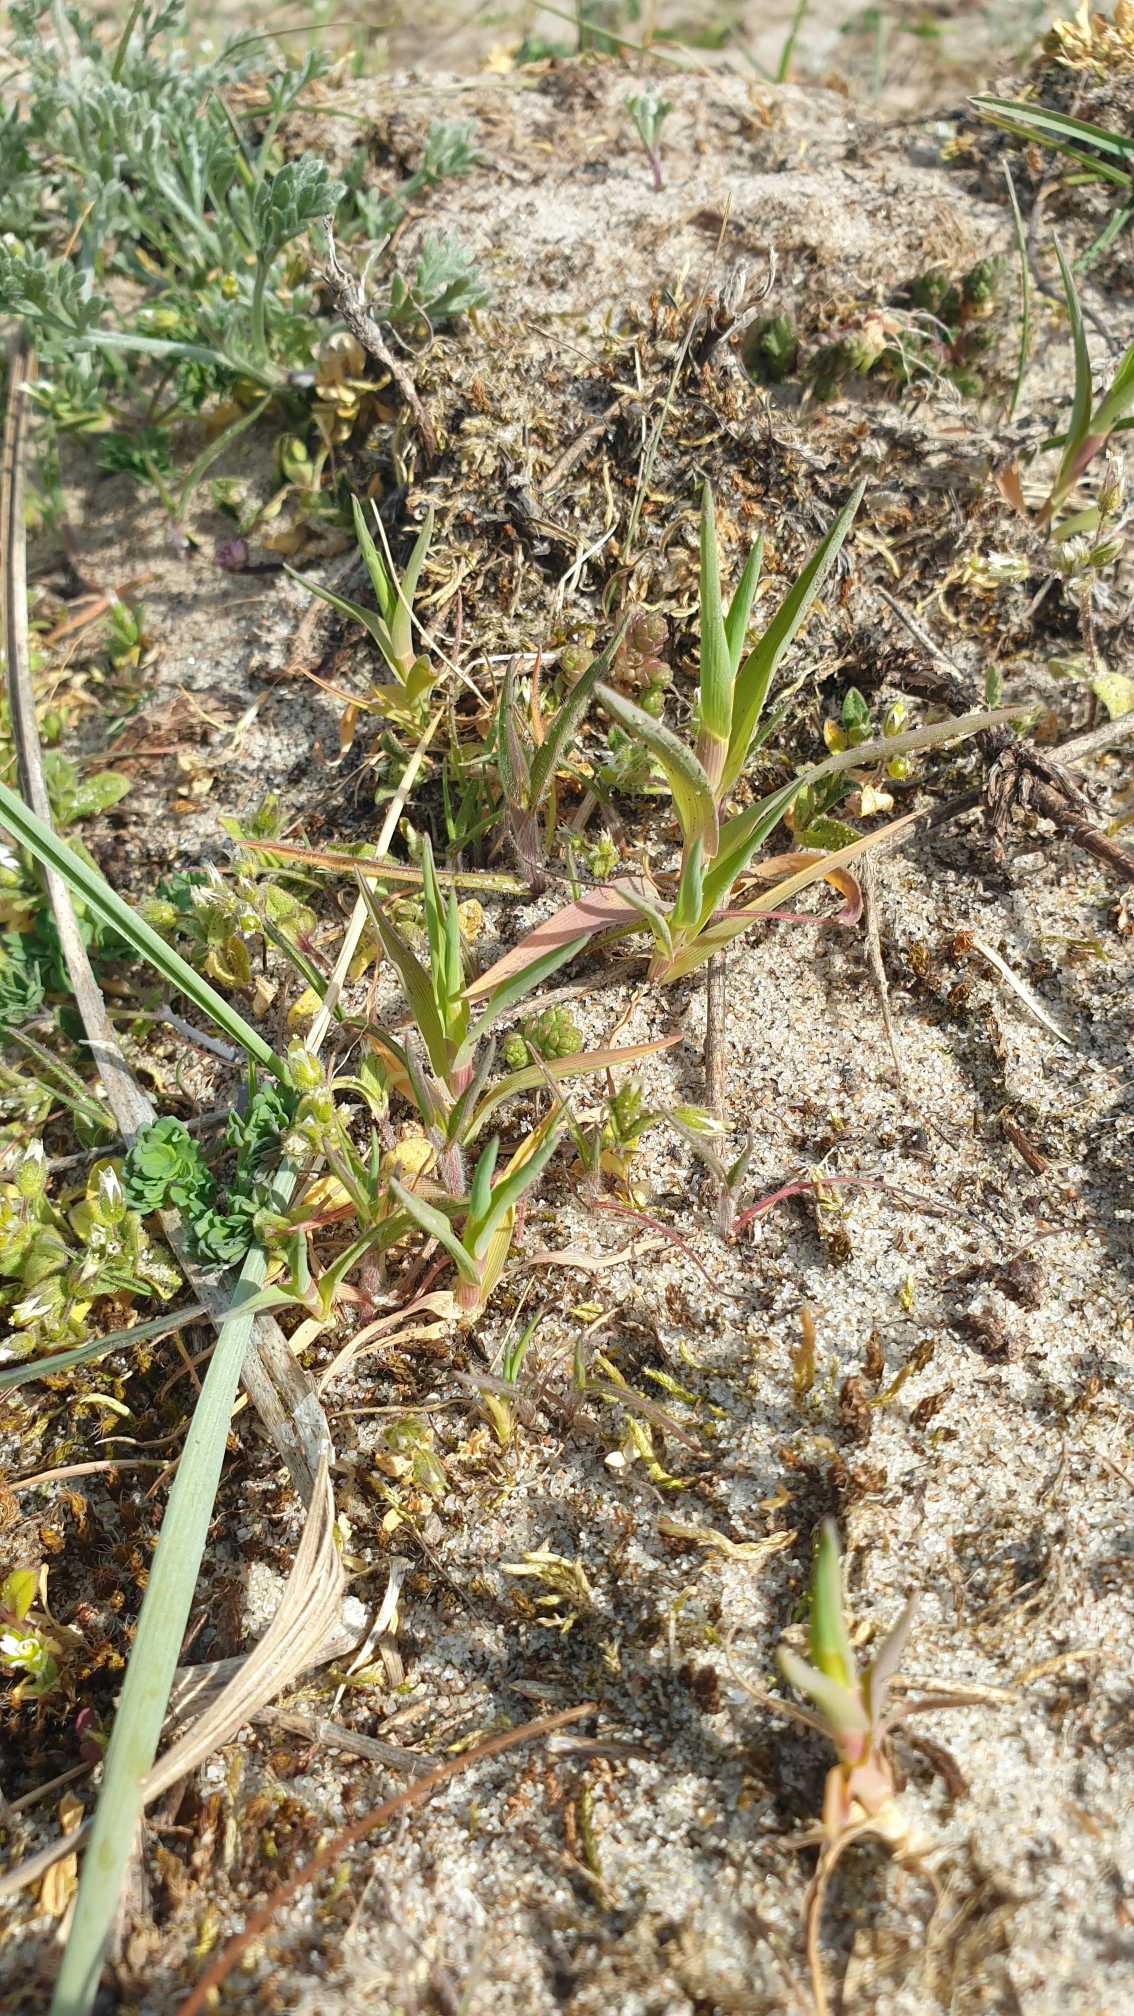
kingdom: Plantae
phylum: Tracheophyta
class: Liliopsida
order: Poales
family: Poaceae
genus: Phleum
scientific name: Phleum arenarium
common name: Sand-rottehale
